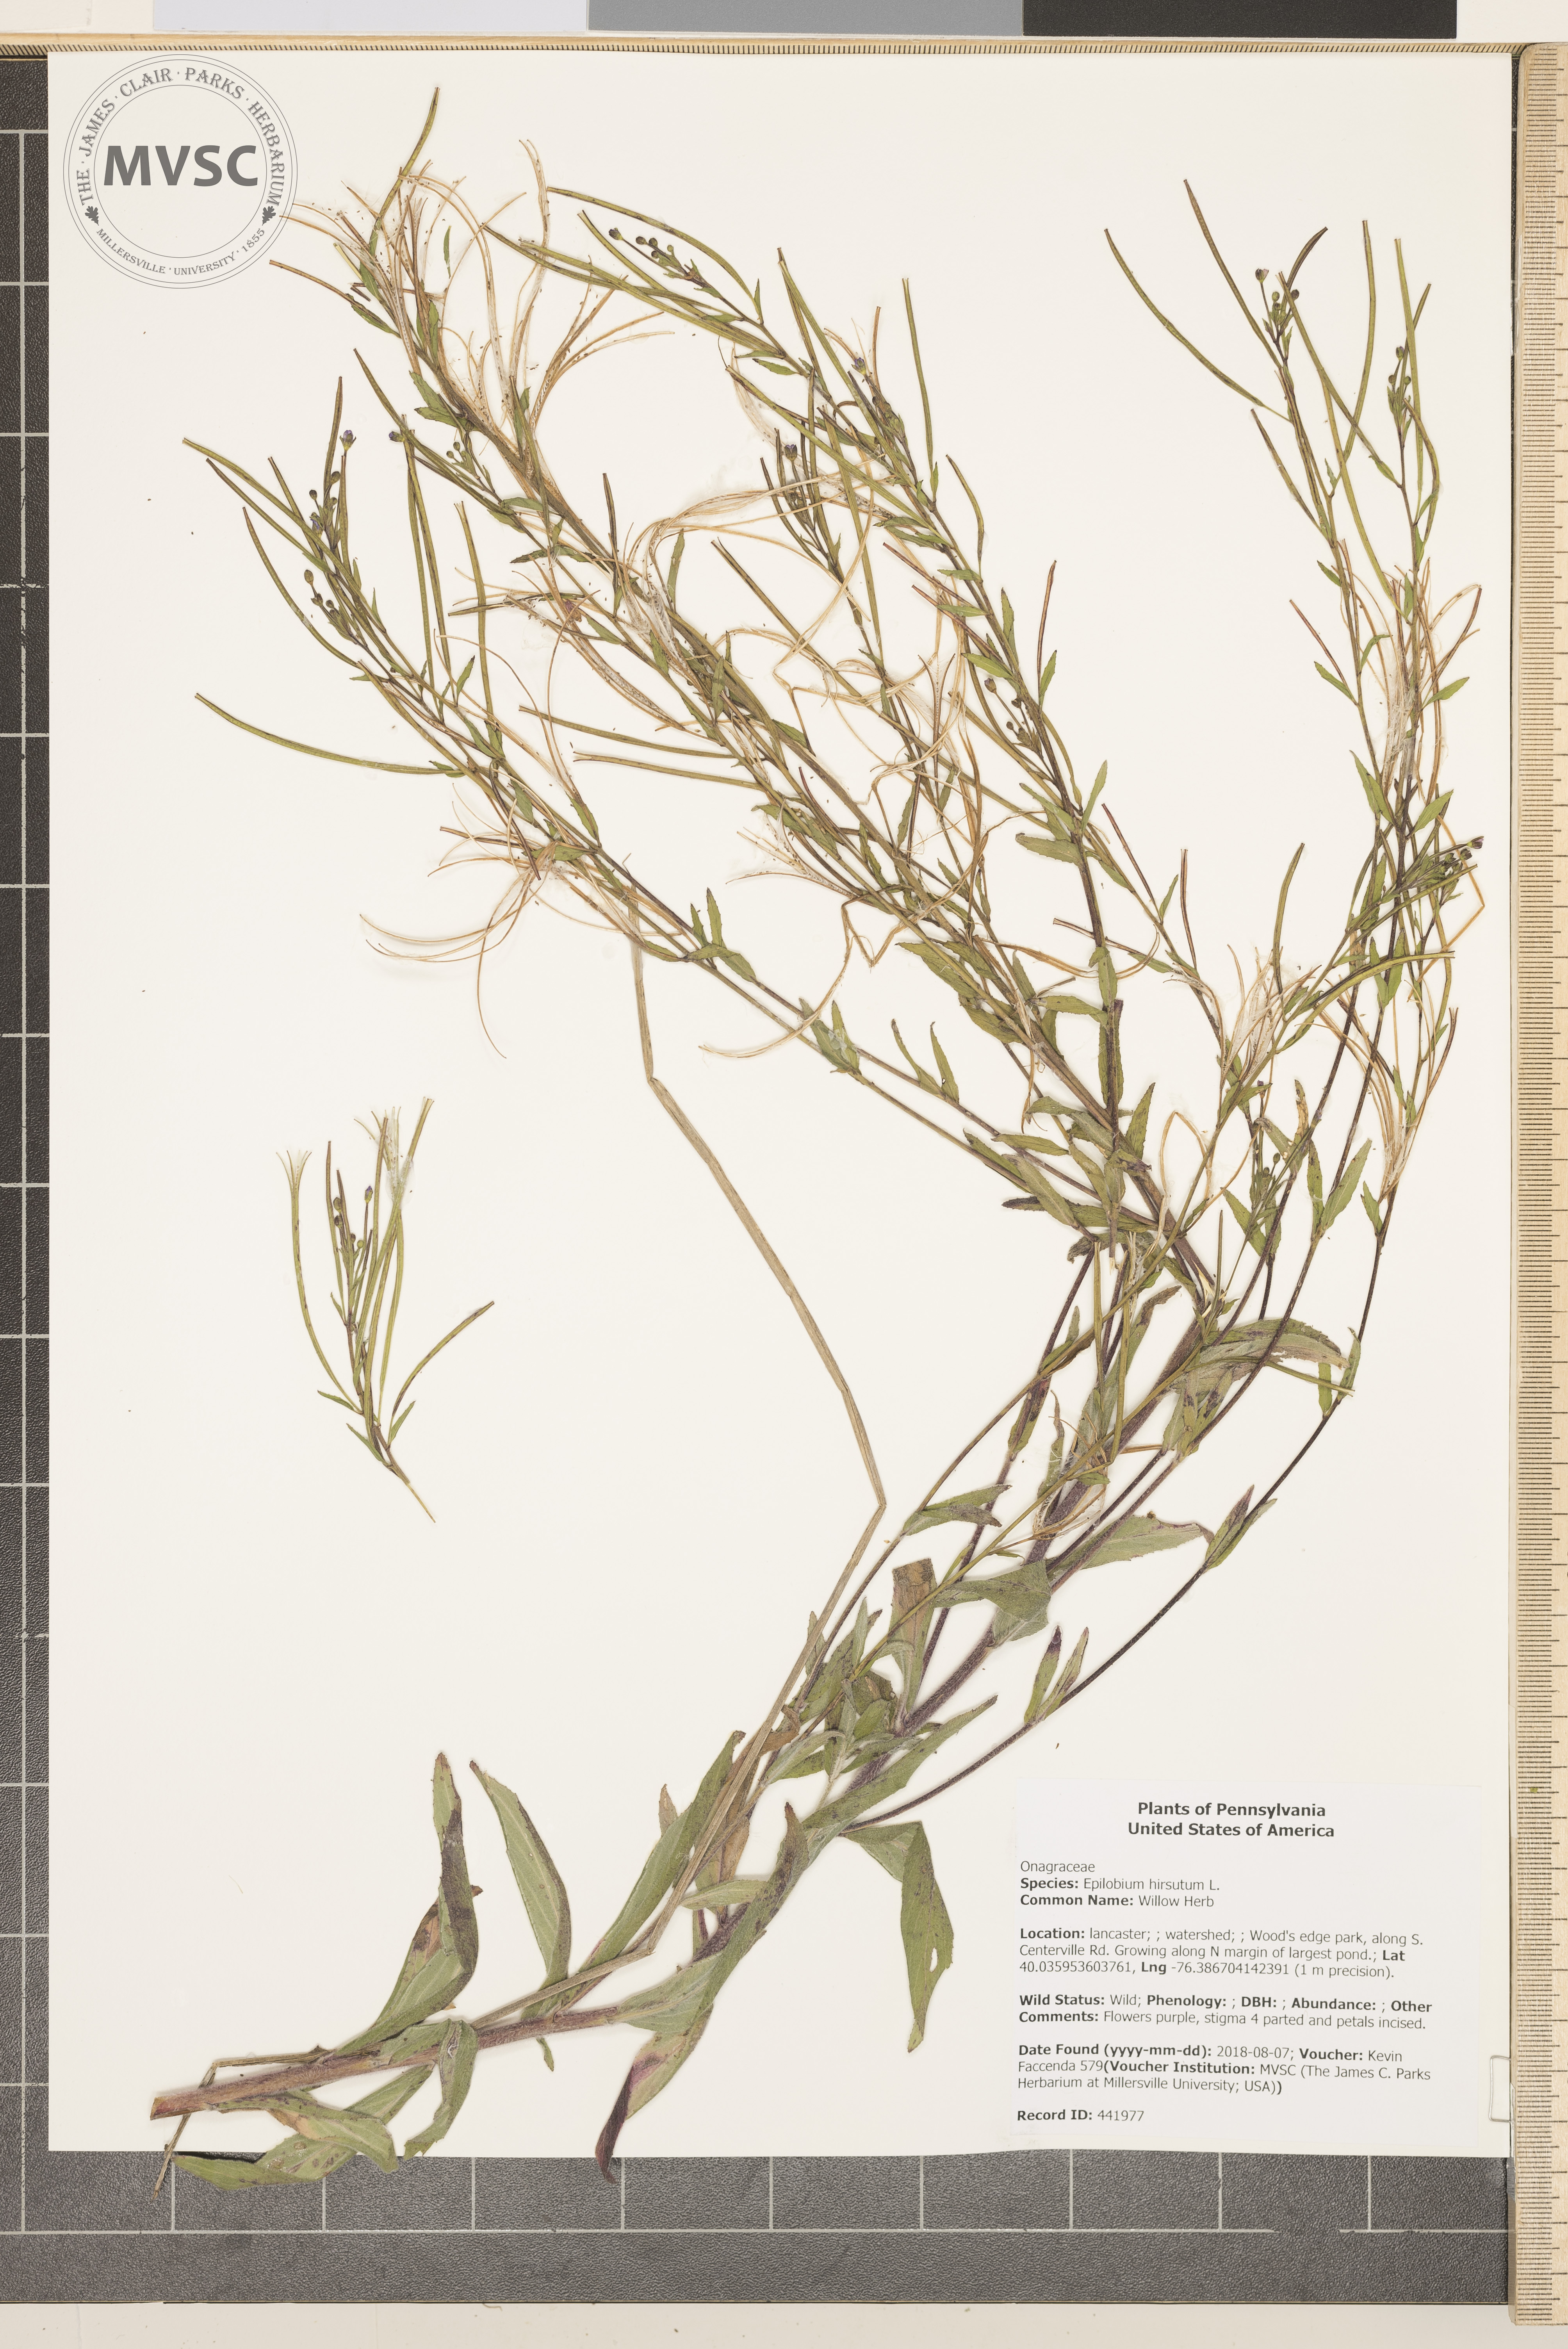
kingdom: Plantae
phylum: Tracheophyta
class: Magnoliopsida
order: Myrtales
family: Onagraceae
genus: Epilobium
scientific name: Epilobium parviflorum
